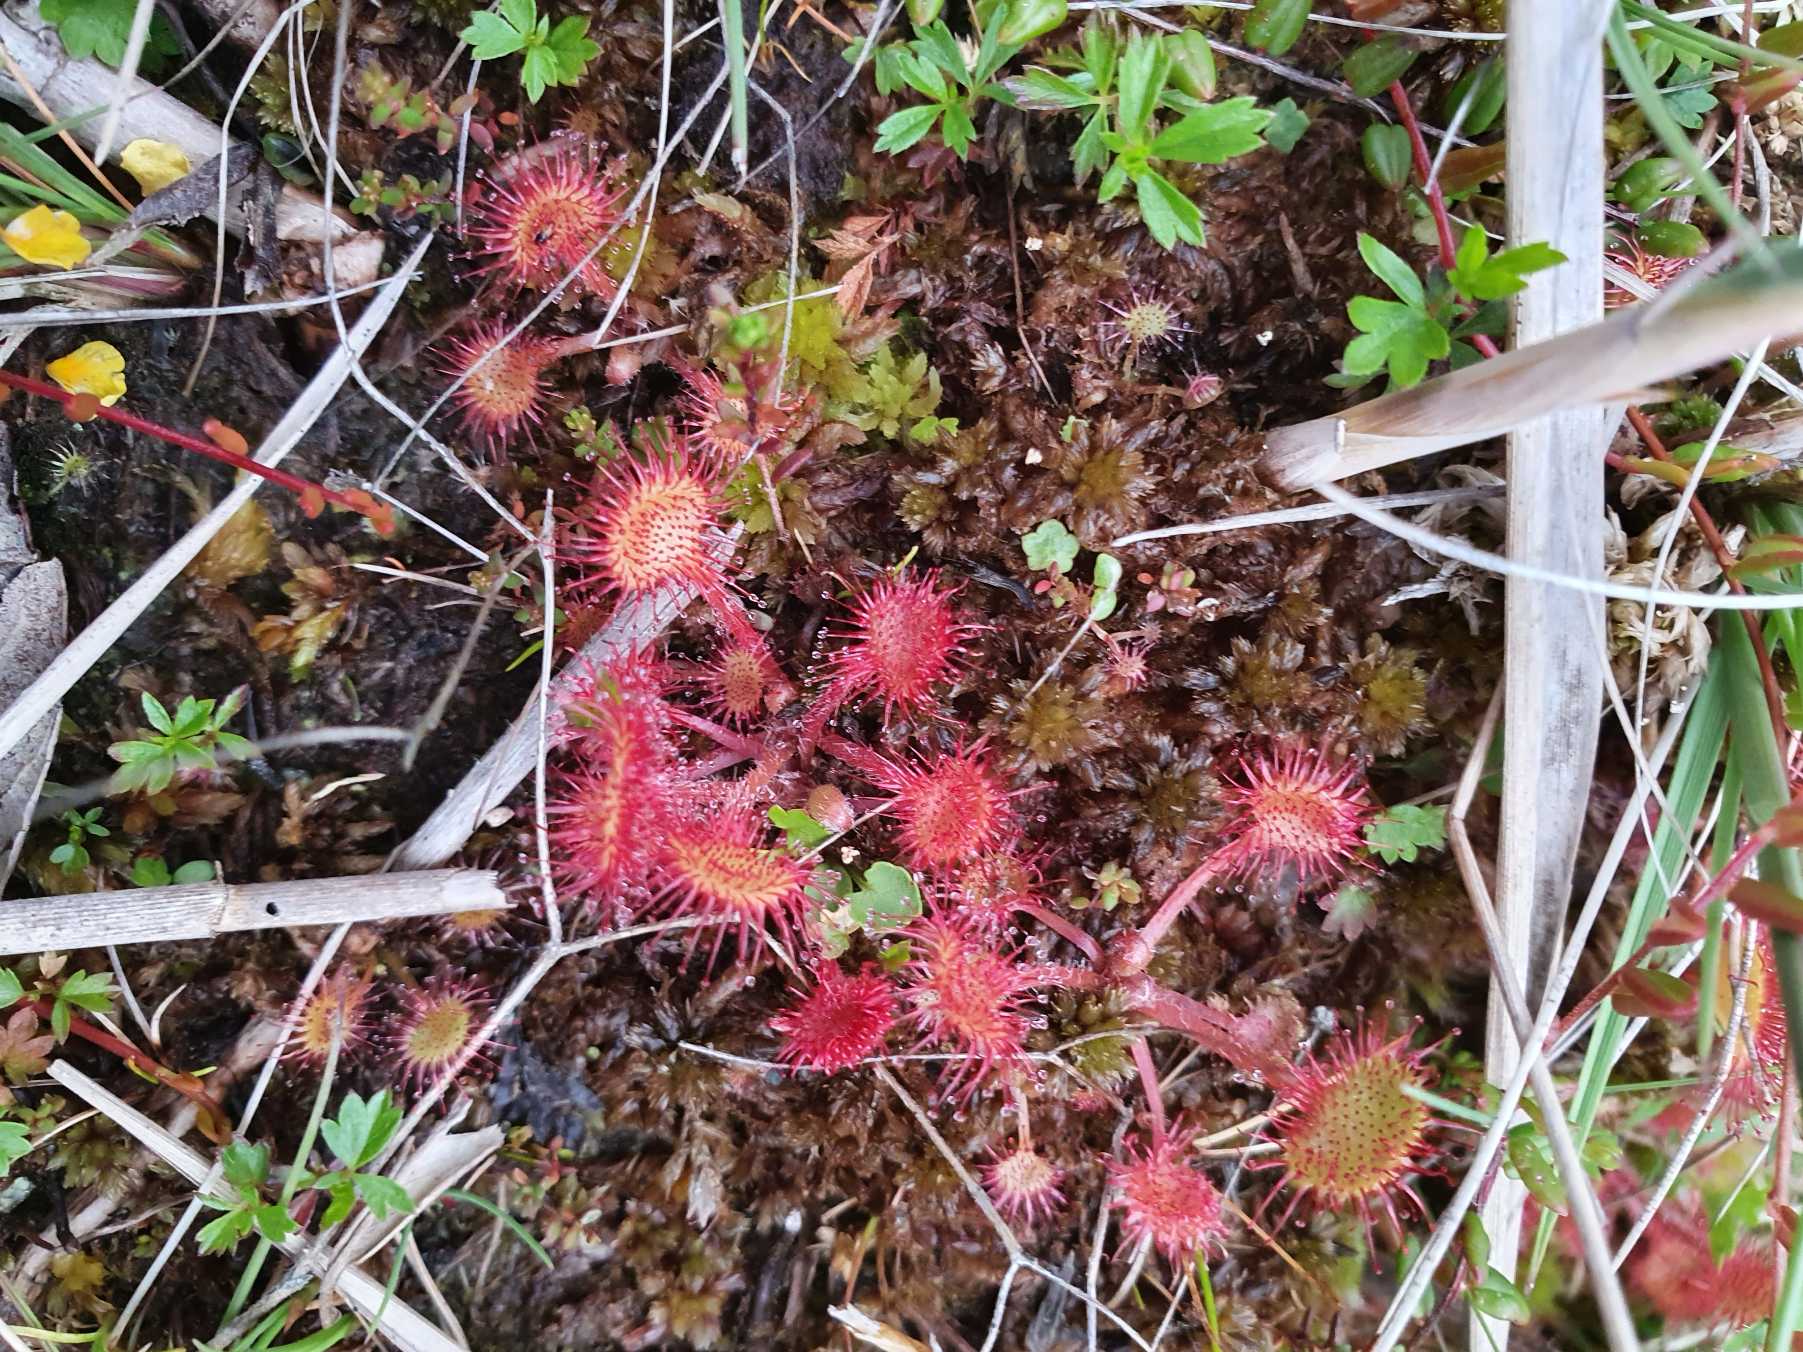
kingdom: Plantae
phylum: Tracheophyta
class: Magnoliopsida
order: Caryophyllales
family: Droseraceae
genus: Drosera
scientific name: Drosera rotundifolia
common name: Rundbladet soldug
